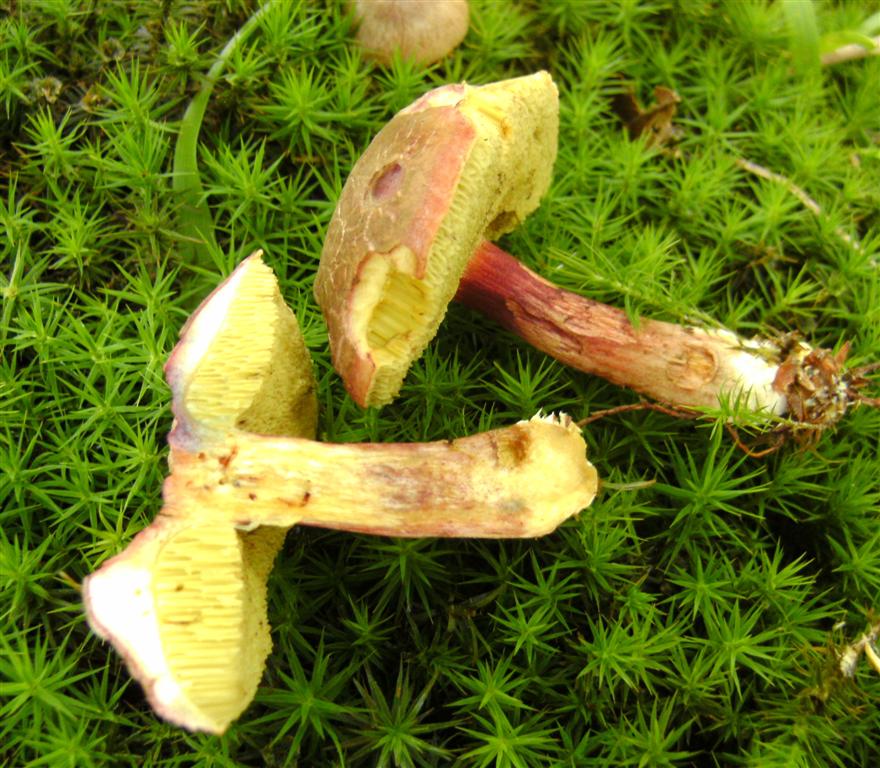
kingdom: Fungi
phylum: Basidiomycota
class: Agaricomycetes
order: Boletales
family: Boletaceae
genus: Xerocomellus
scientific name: Xerocomellus pruinatus
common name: dugget rørhat
